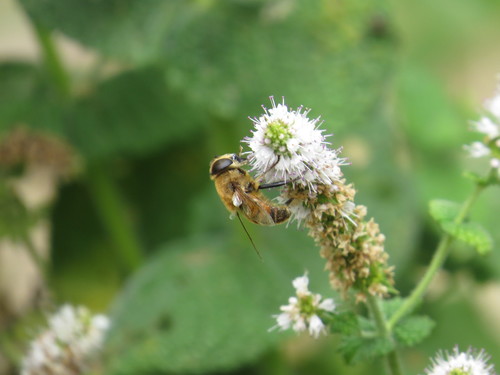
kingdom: Animalia
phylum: Arthropoda
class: Insecta
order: Diptera
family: Syrphidae
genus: Eristalis
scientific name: Eristalis tenax
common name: Drone fly
